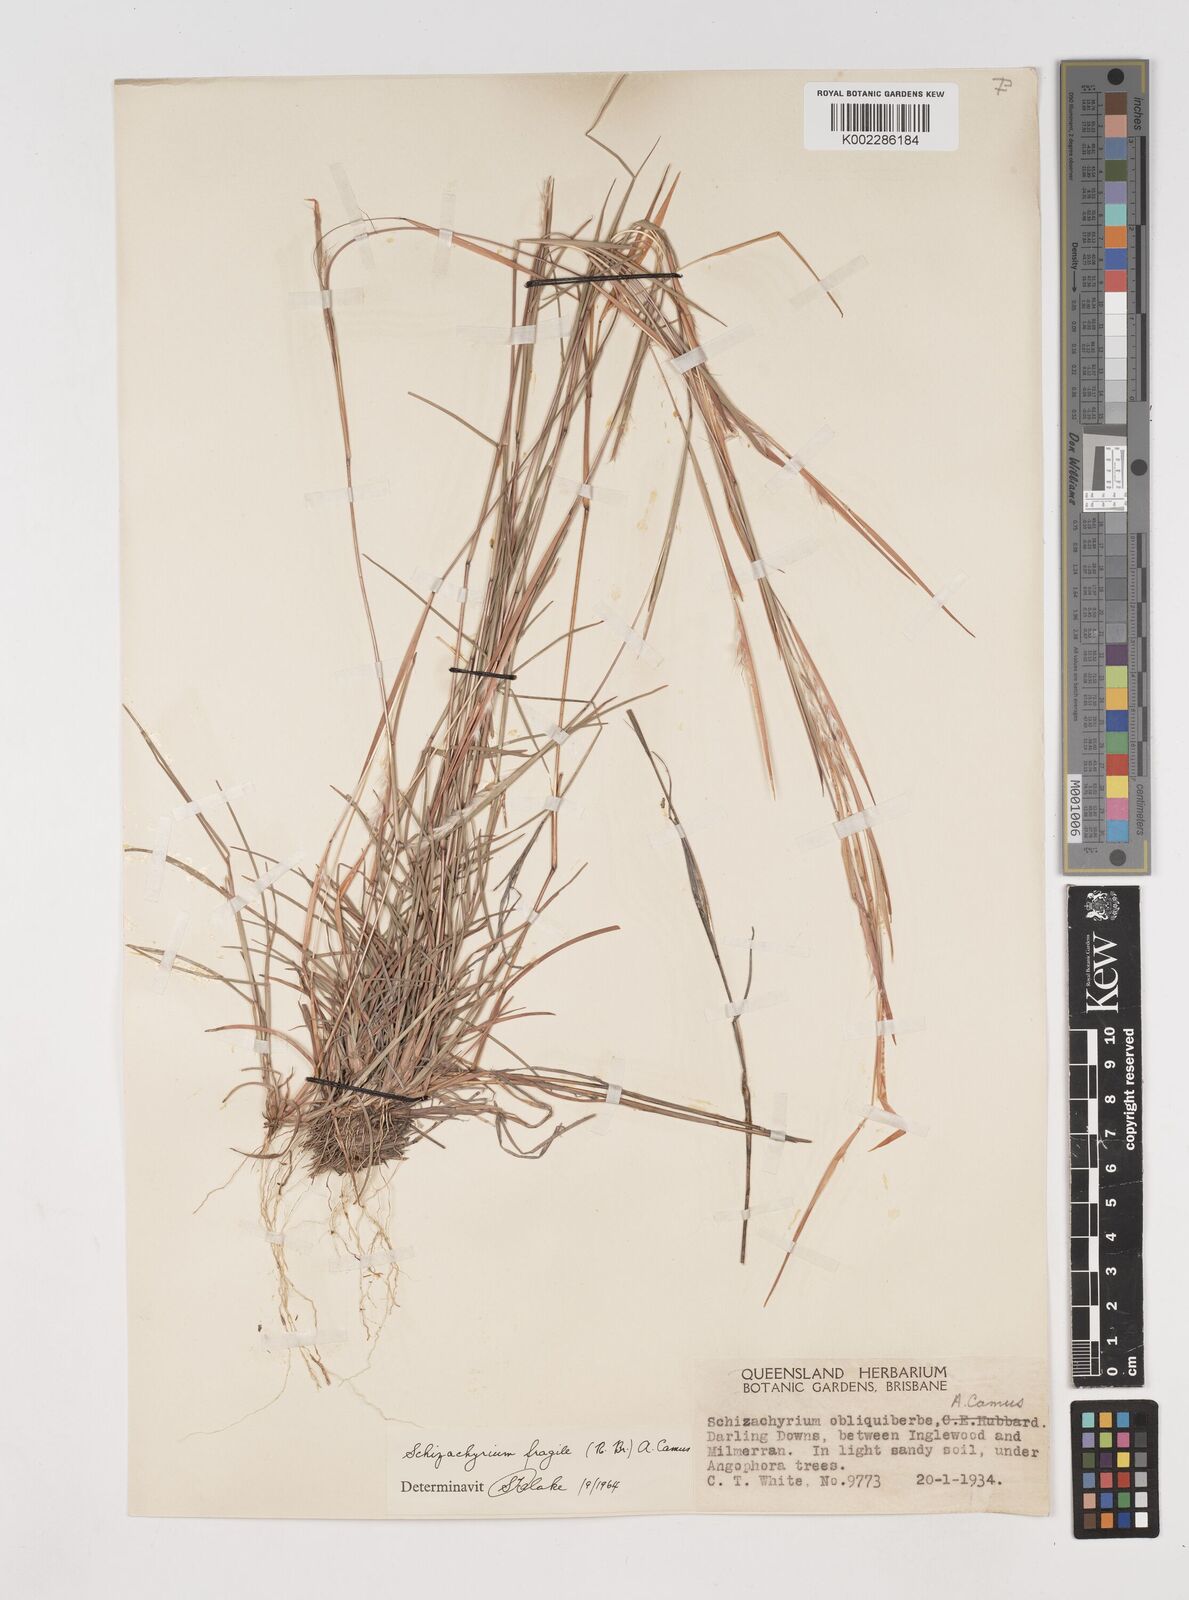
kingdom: Plantae
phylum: Tracheophyta
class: Liliopsida
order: Poales
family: Poaceae
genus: Schizachyrium
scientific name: Schizachyrium fragile
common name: Red spathe grass
